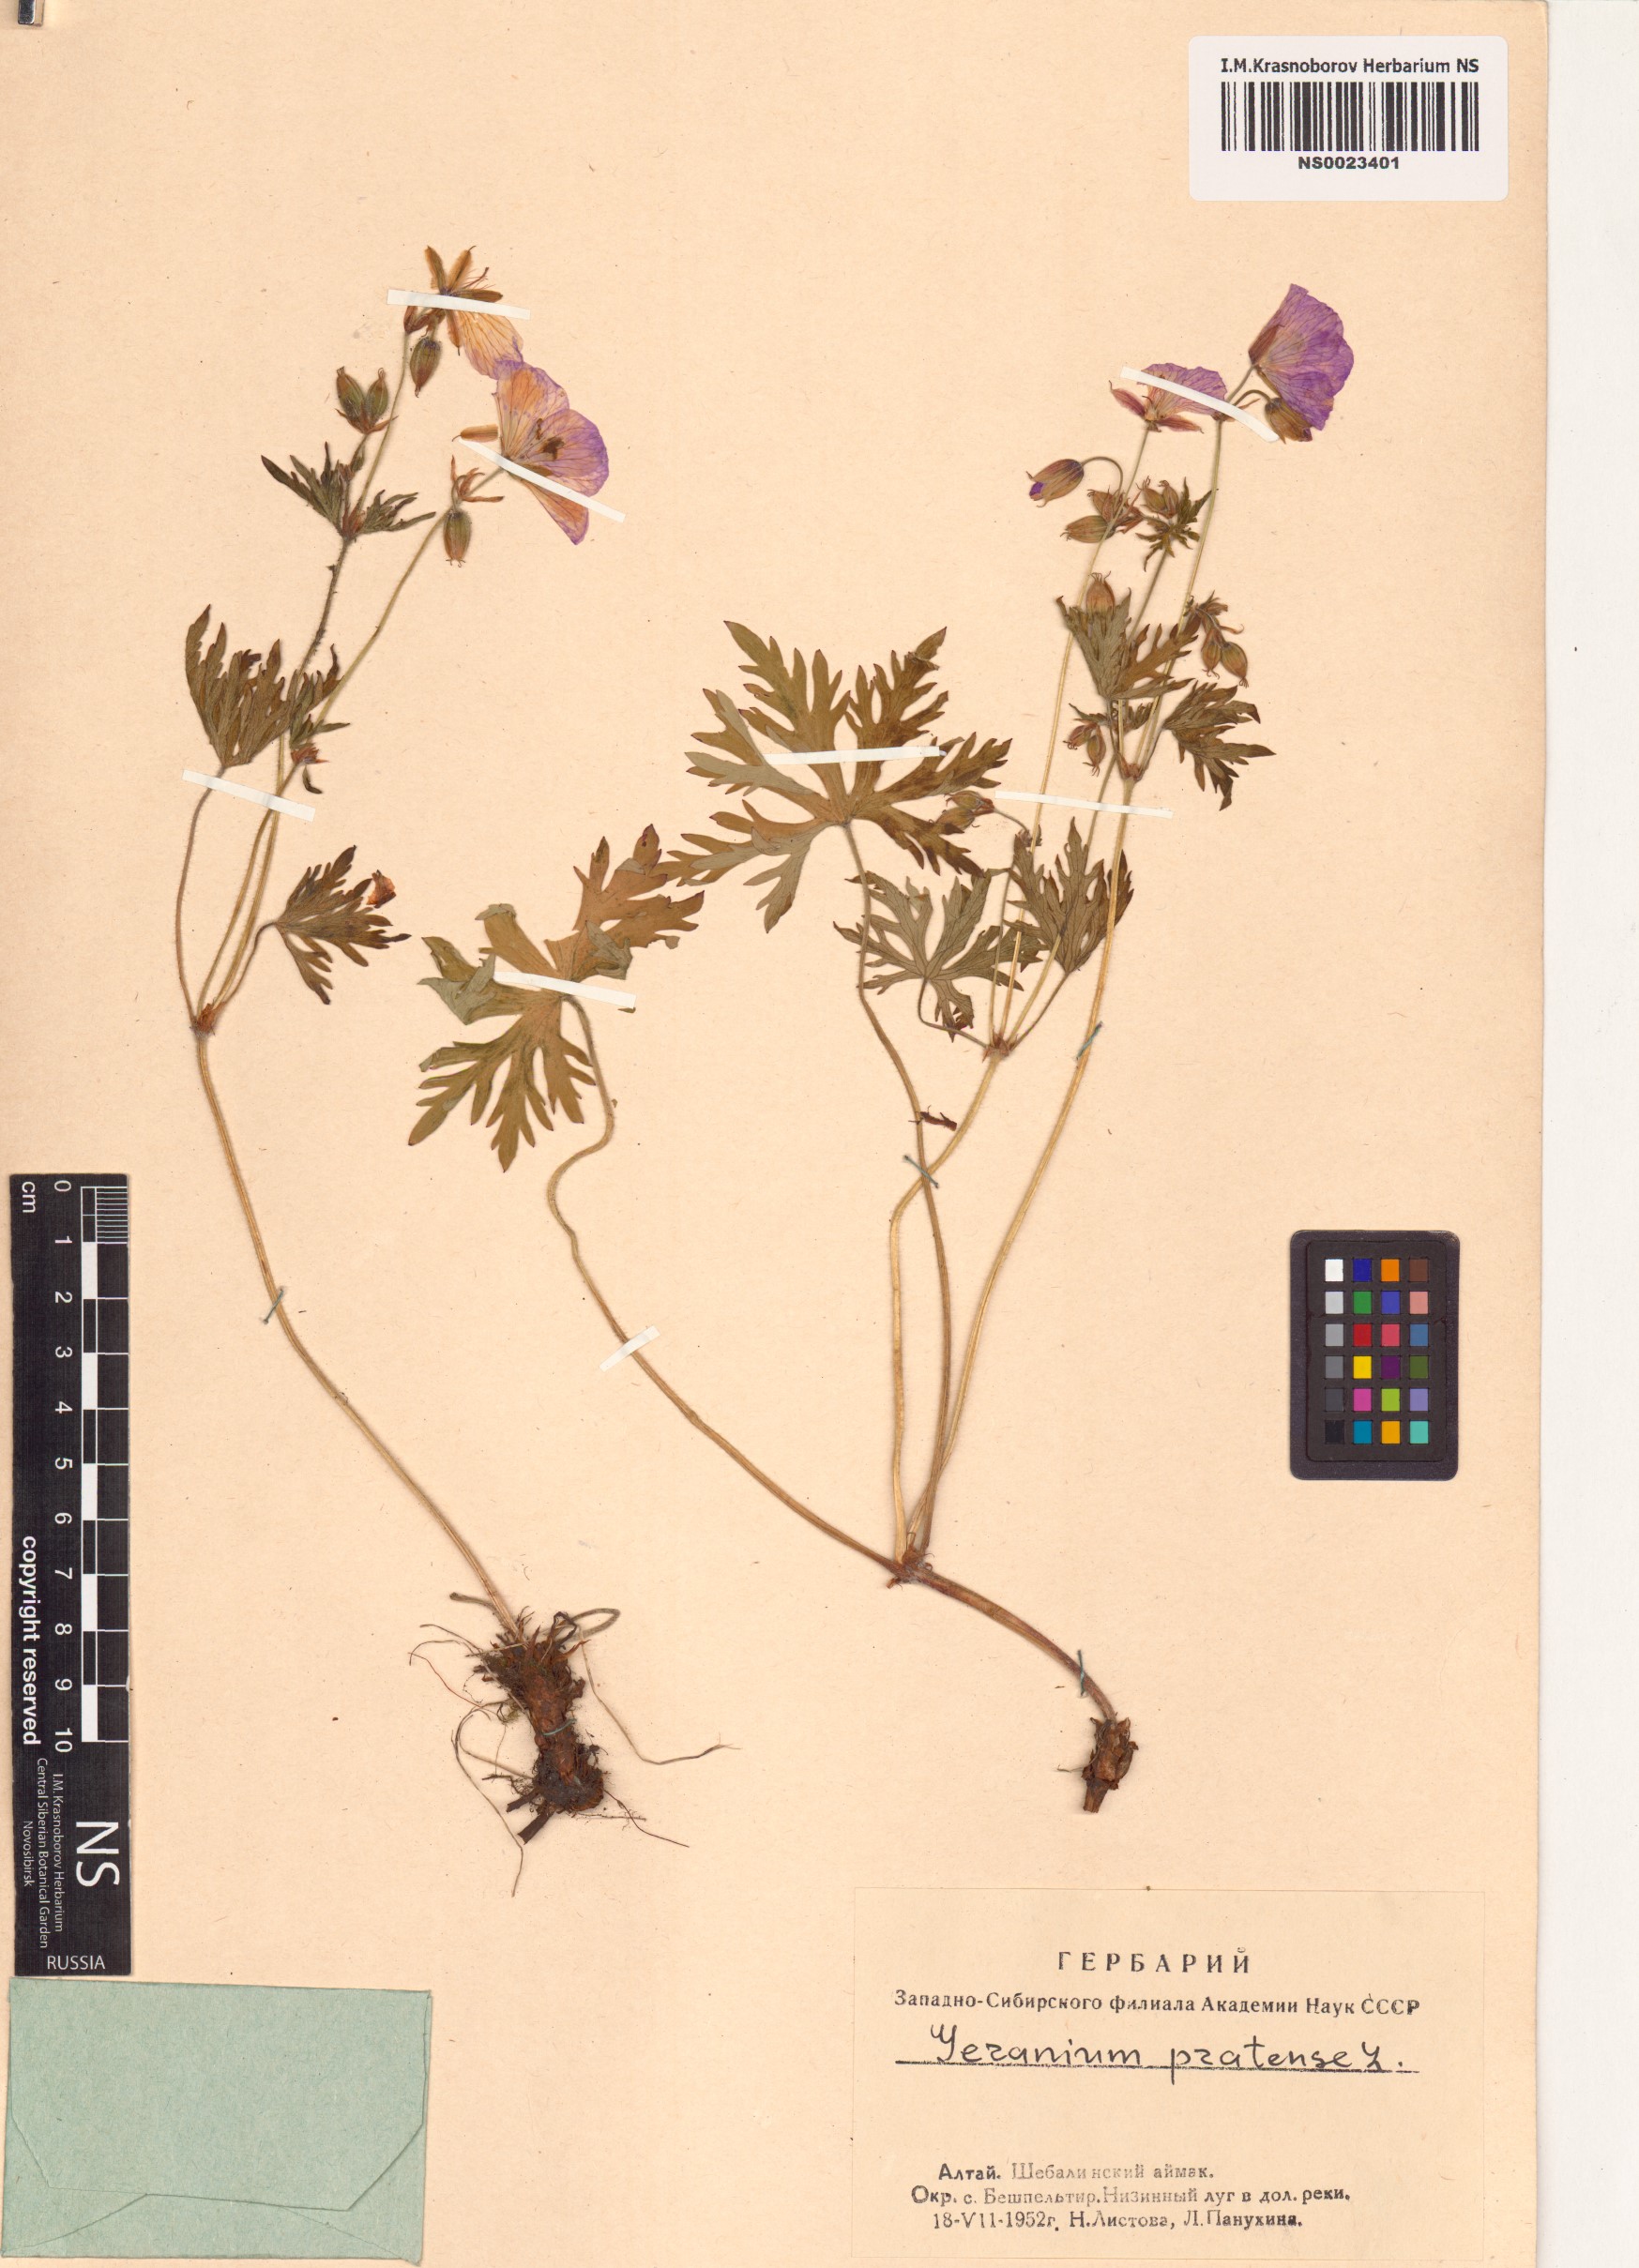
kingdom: Plantae
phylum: Tracheophyta
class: Magnoliopsida
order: Geraniales
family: Geraniaceae
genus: Geranium
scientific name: Geranium pratense
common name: Meadow crane's-bill
